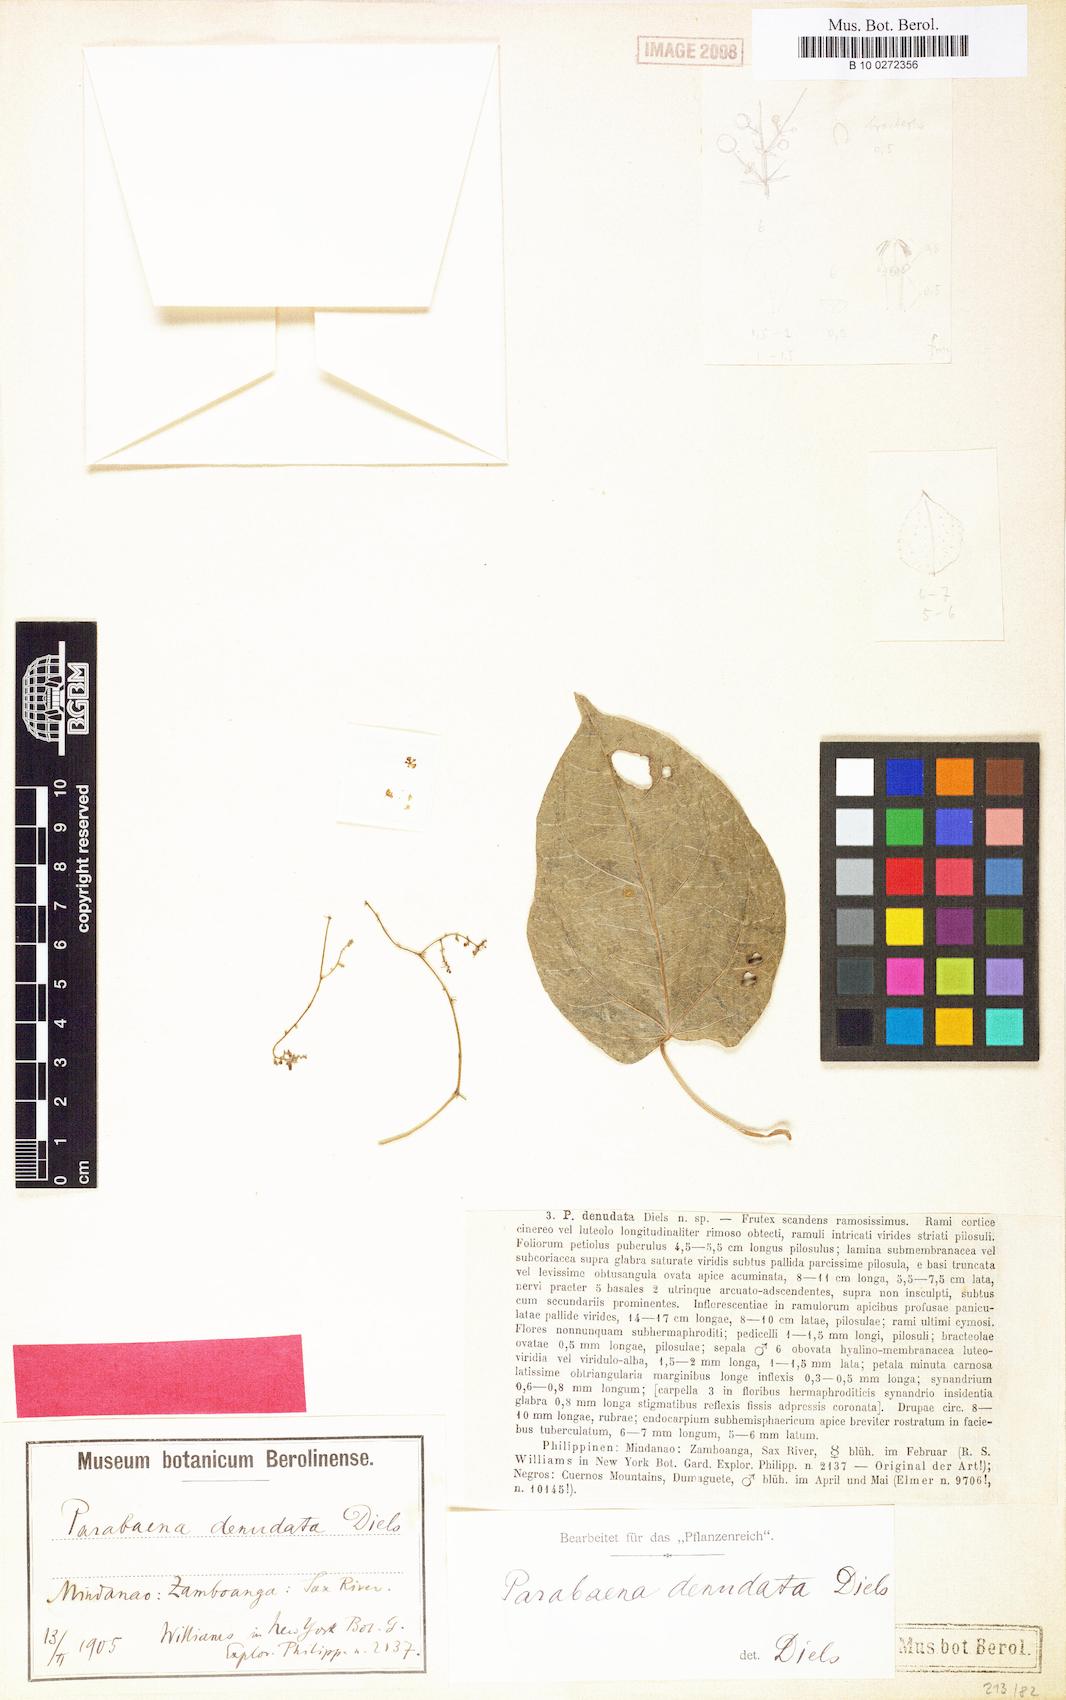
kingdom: Plantae
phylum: Tracheophyta
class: Magnoliopsida
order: Ranunculales
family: Menispermaceae
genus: Parabaena
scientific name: Parabaena denudata
